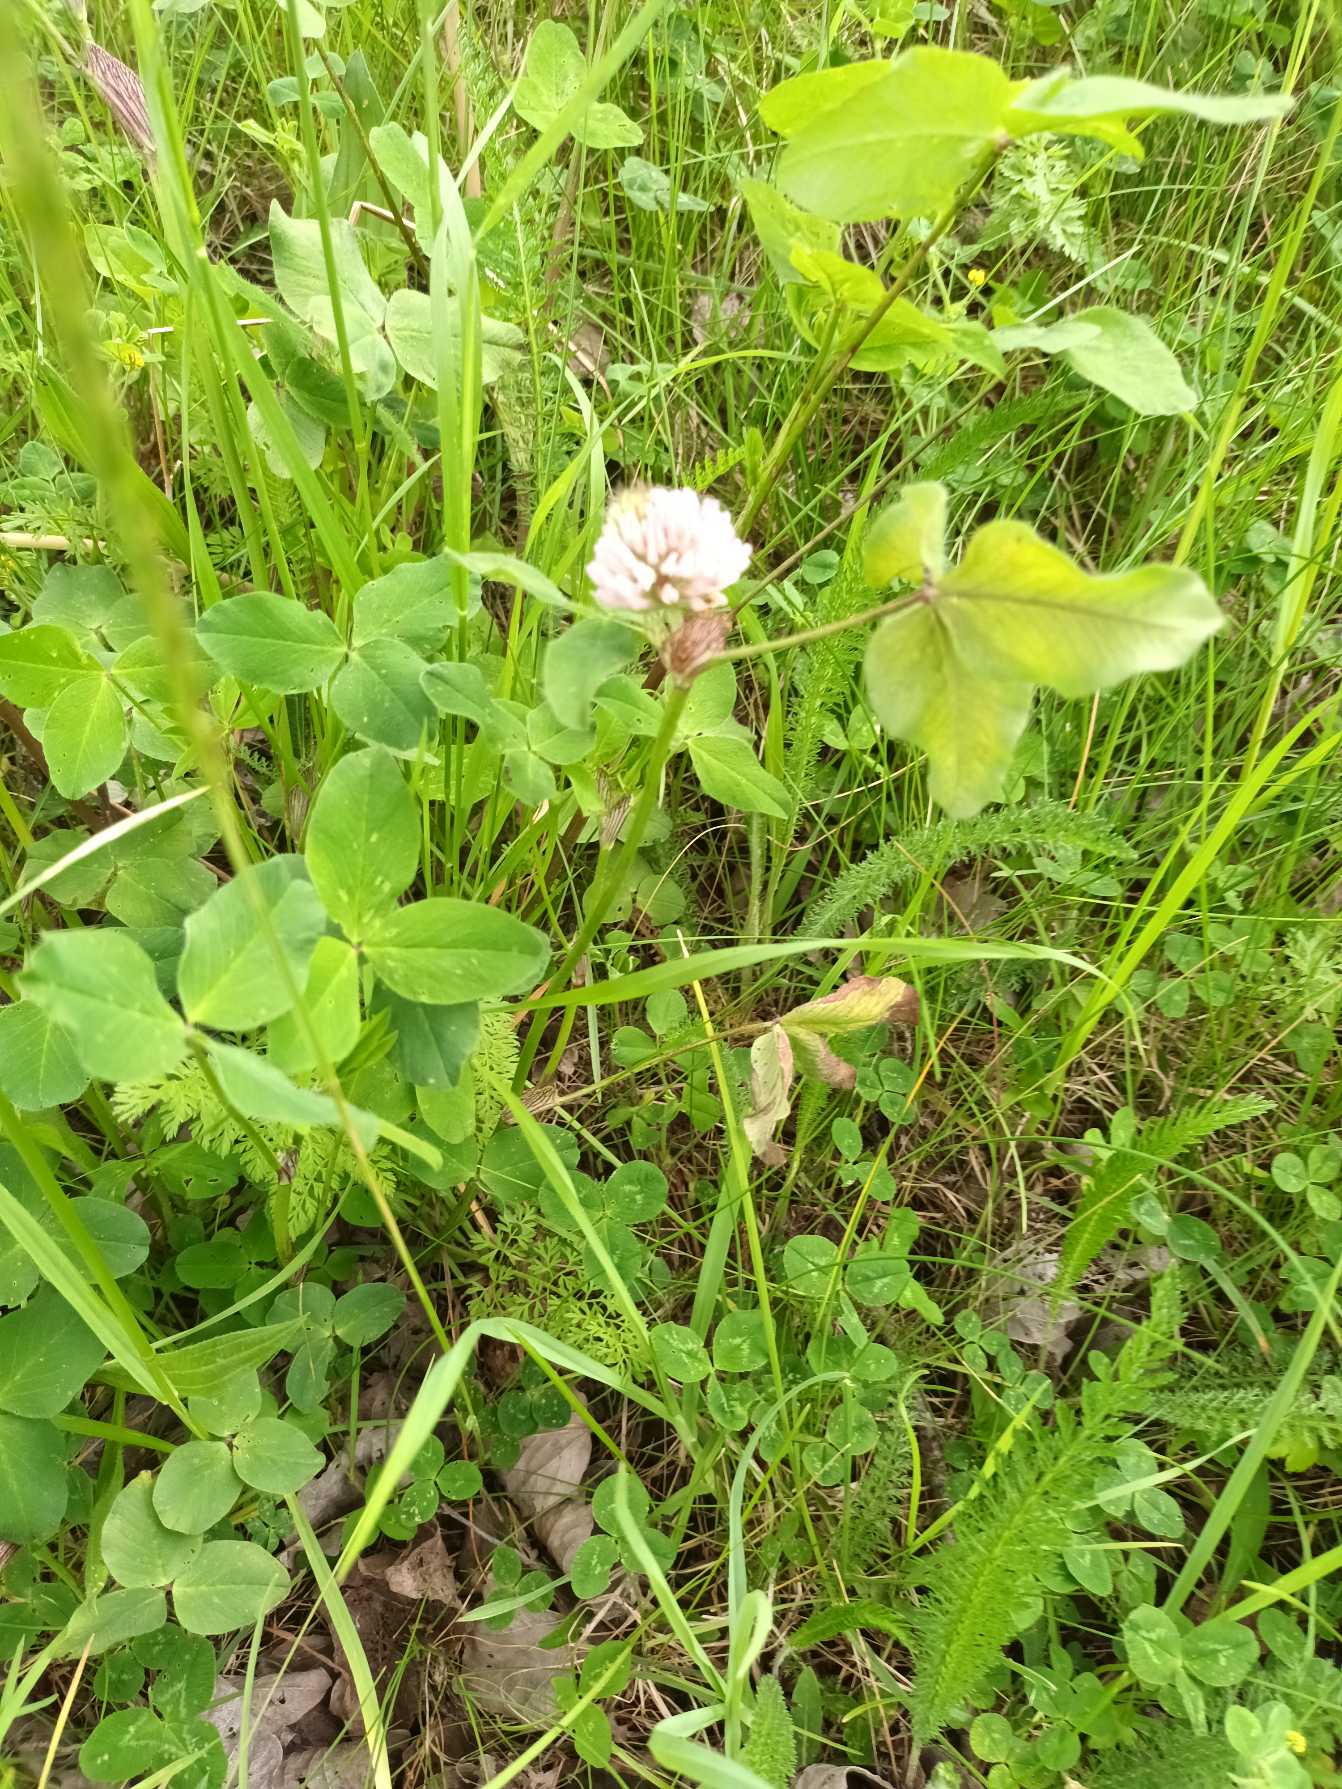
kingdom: Plantae
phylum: Tracheophyta
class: Magnoliopsida
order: Fabales
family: Fabaceae
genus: Trifolium
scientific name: Trifolium pratense
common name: Rød-kløver
